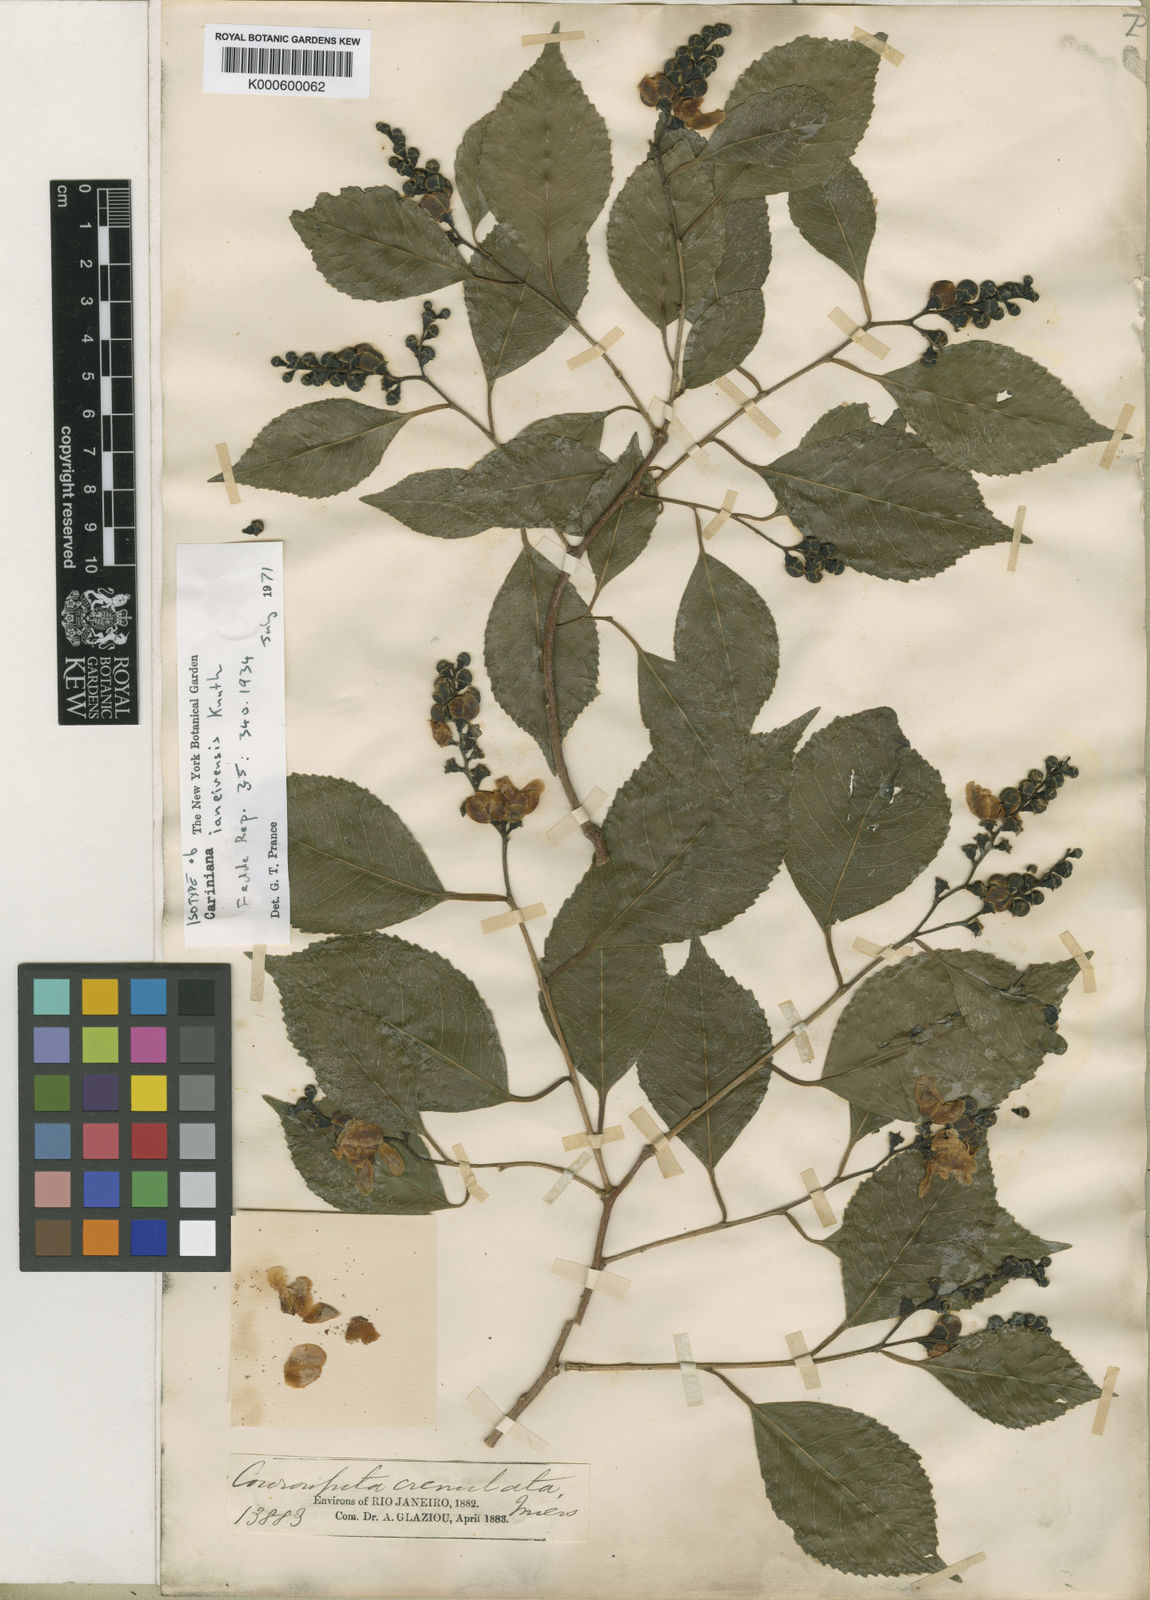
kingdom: Plantae
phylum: Tracheophyta
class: Magnoliopsida
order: Ericales
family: Lecythidaceae
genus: Cariniana
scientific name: Cariniana ianeirensis
